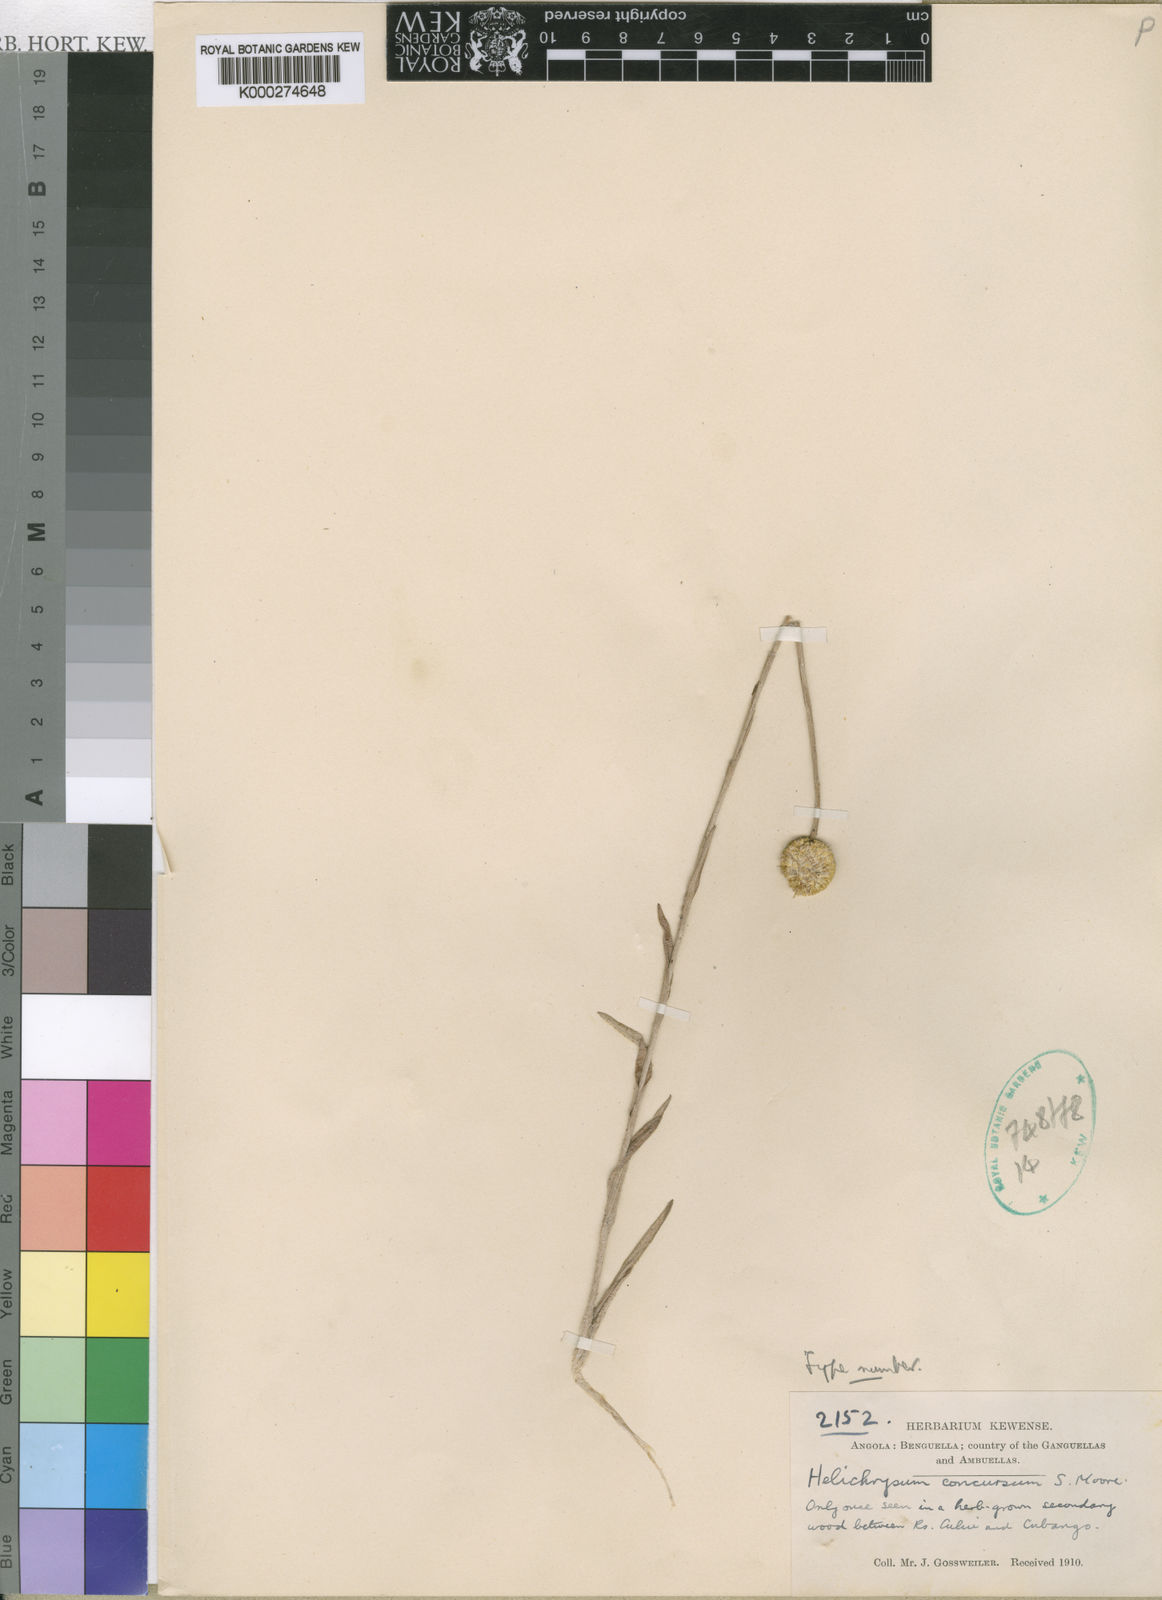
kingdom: Plantae
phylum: Tracheophyta
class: Magnoliopsida
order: Asterales
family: Asteraceae
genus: Helichrysum
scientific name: Helichrysum concursum
